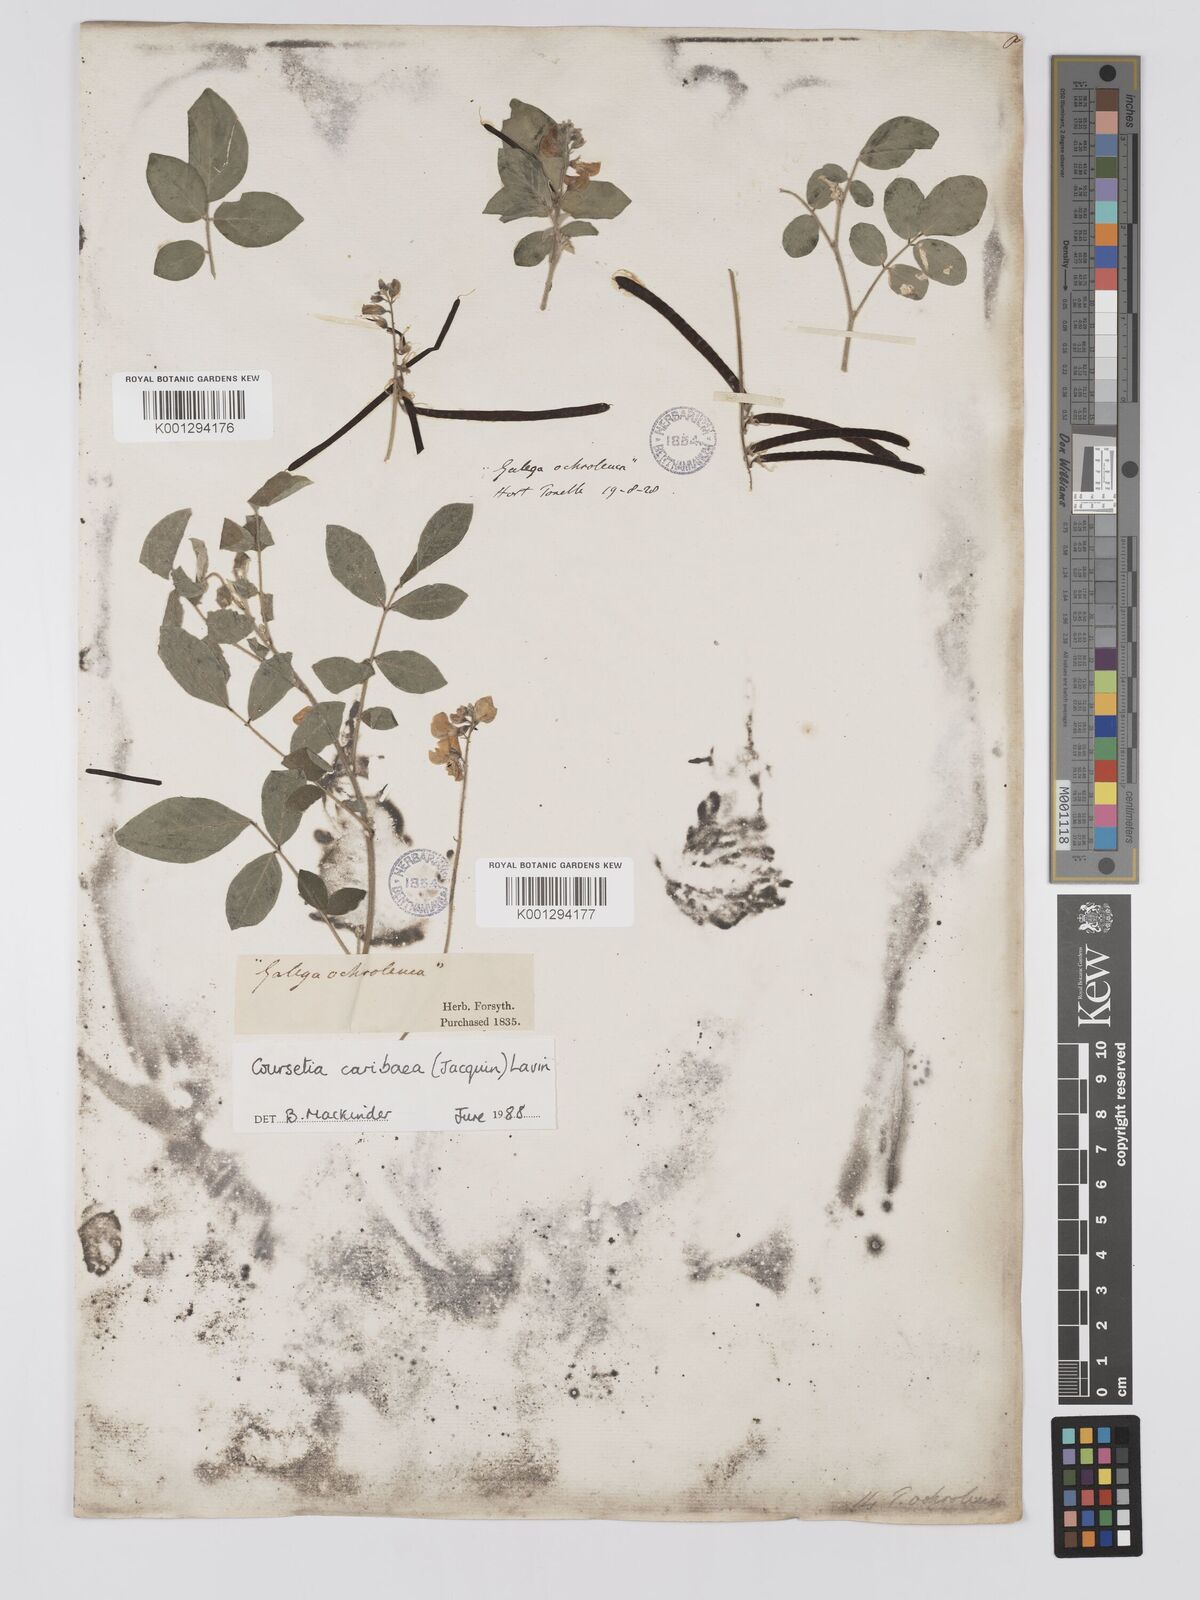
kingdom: Plantae
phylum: Tracheophyta
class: Magnoliopsida
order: Fabales
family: Fabaceae
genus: Coursetia
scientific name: Coursetia
